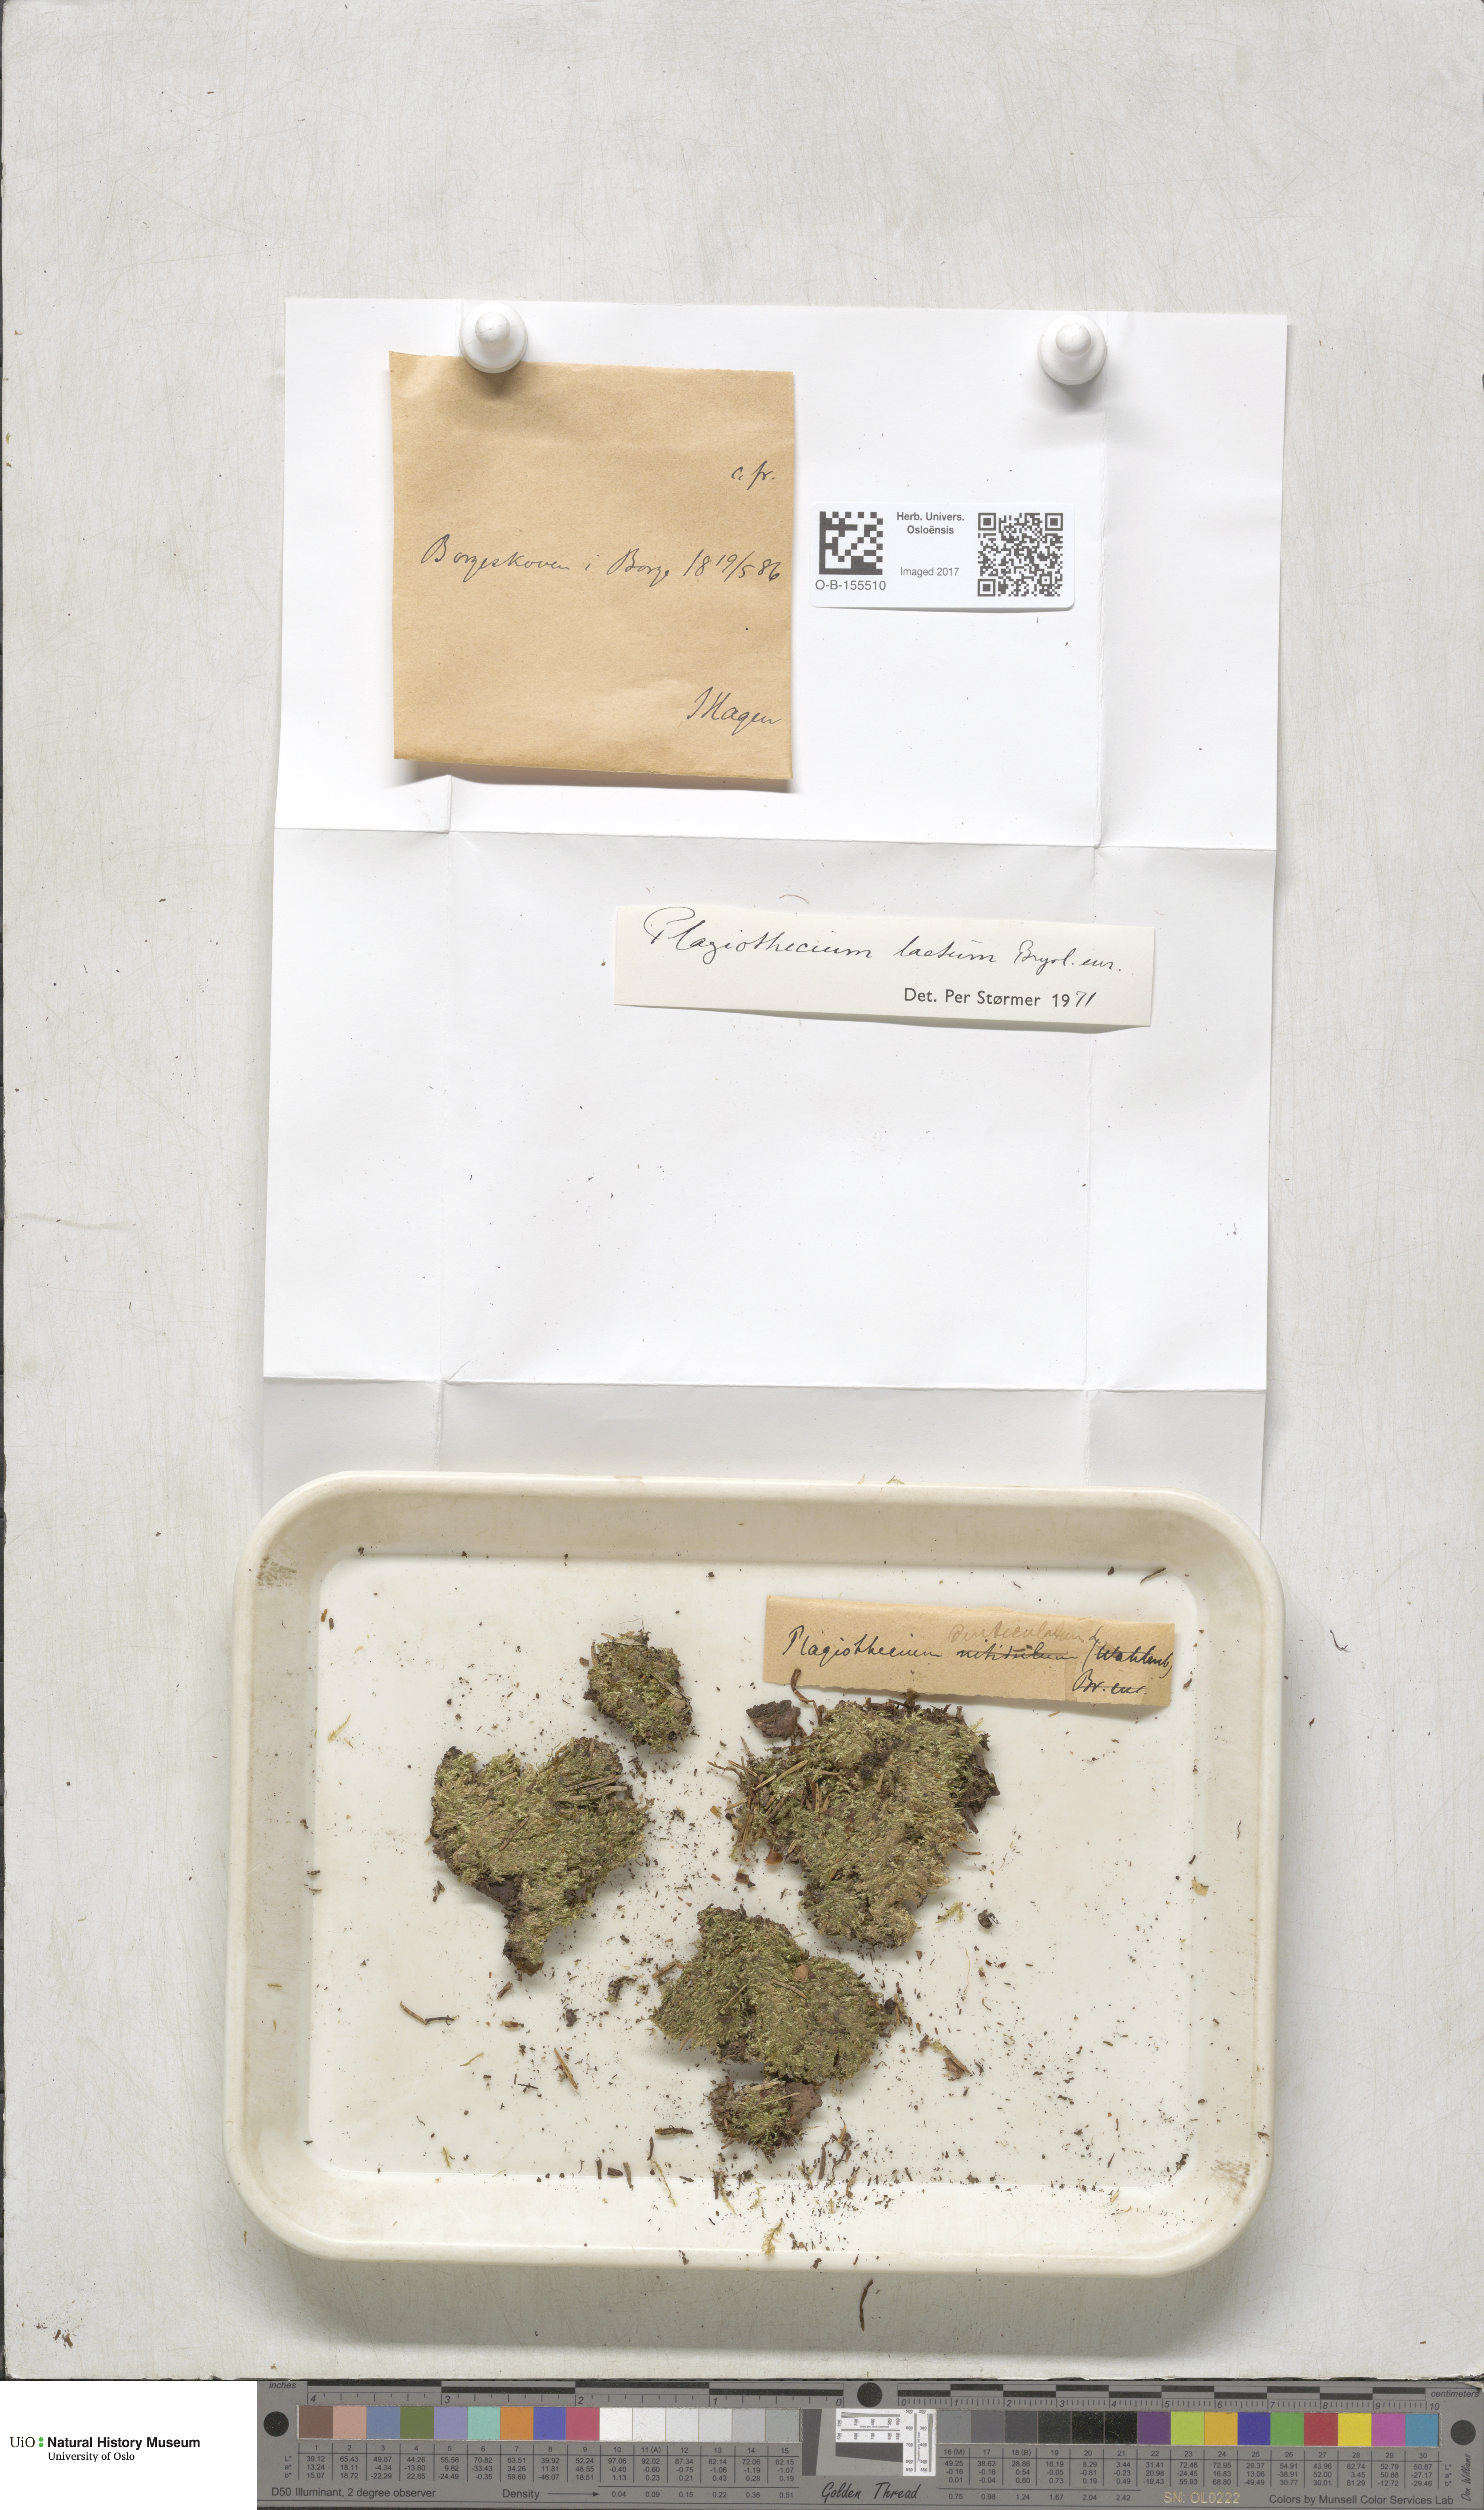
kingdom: Plantae
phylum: Bryophyta
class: Bryopsida
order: Hypnales
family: Plagiotheciaceae
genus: Plagiothecium
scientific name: Plagiothecium laetum
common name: Bright silk moss
